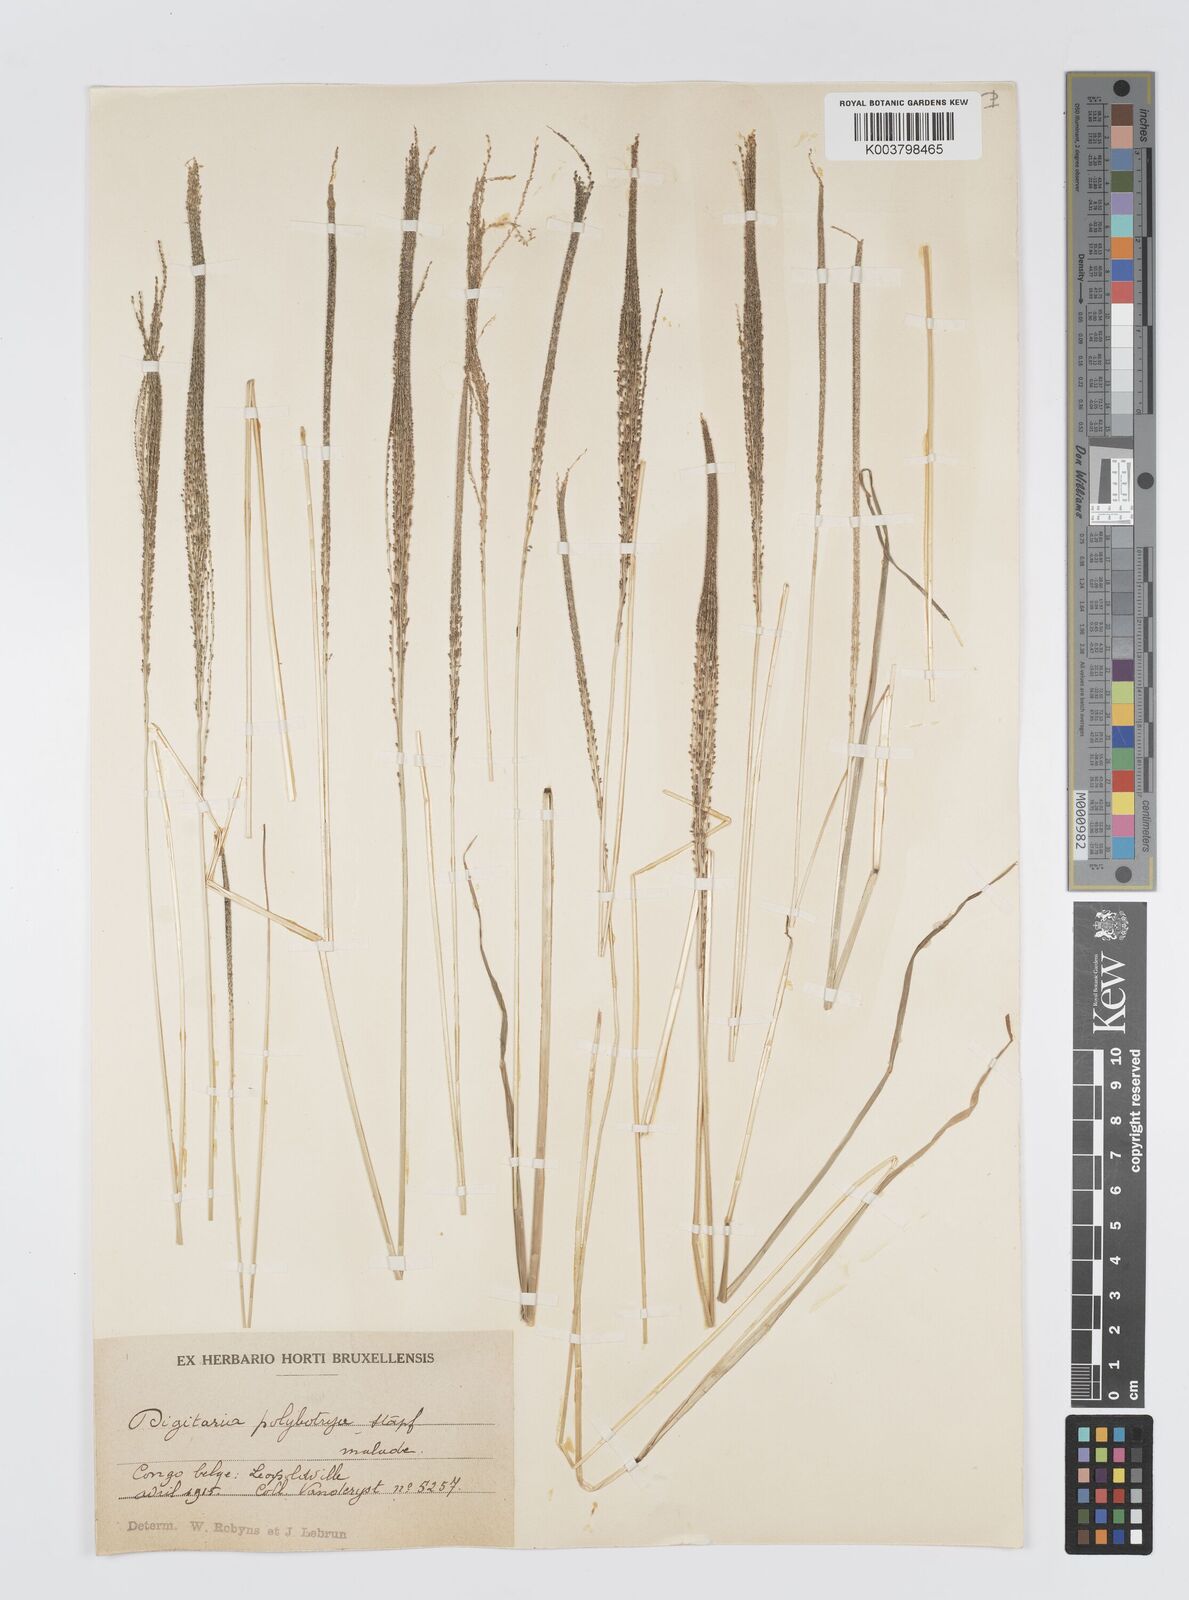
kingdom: Plantae
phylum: Tracheophyta
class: Liliopsida
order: Poales
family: Poaceae
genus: Digitaria
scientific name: Digitaria leptorhachis
